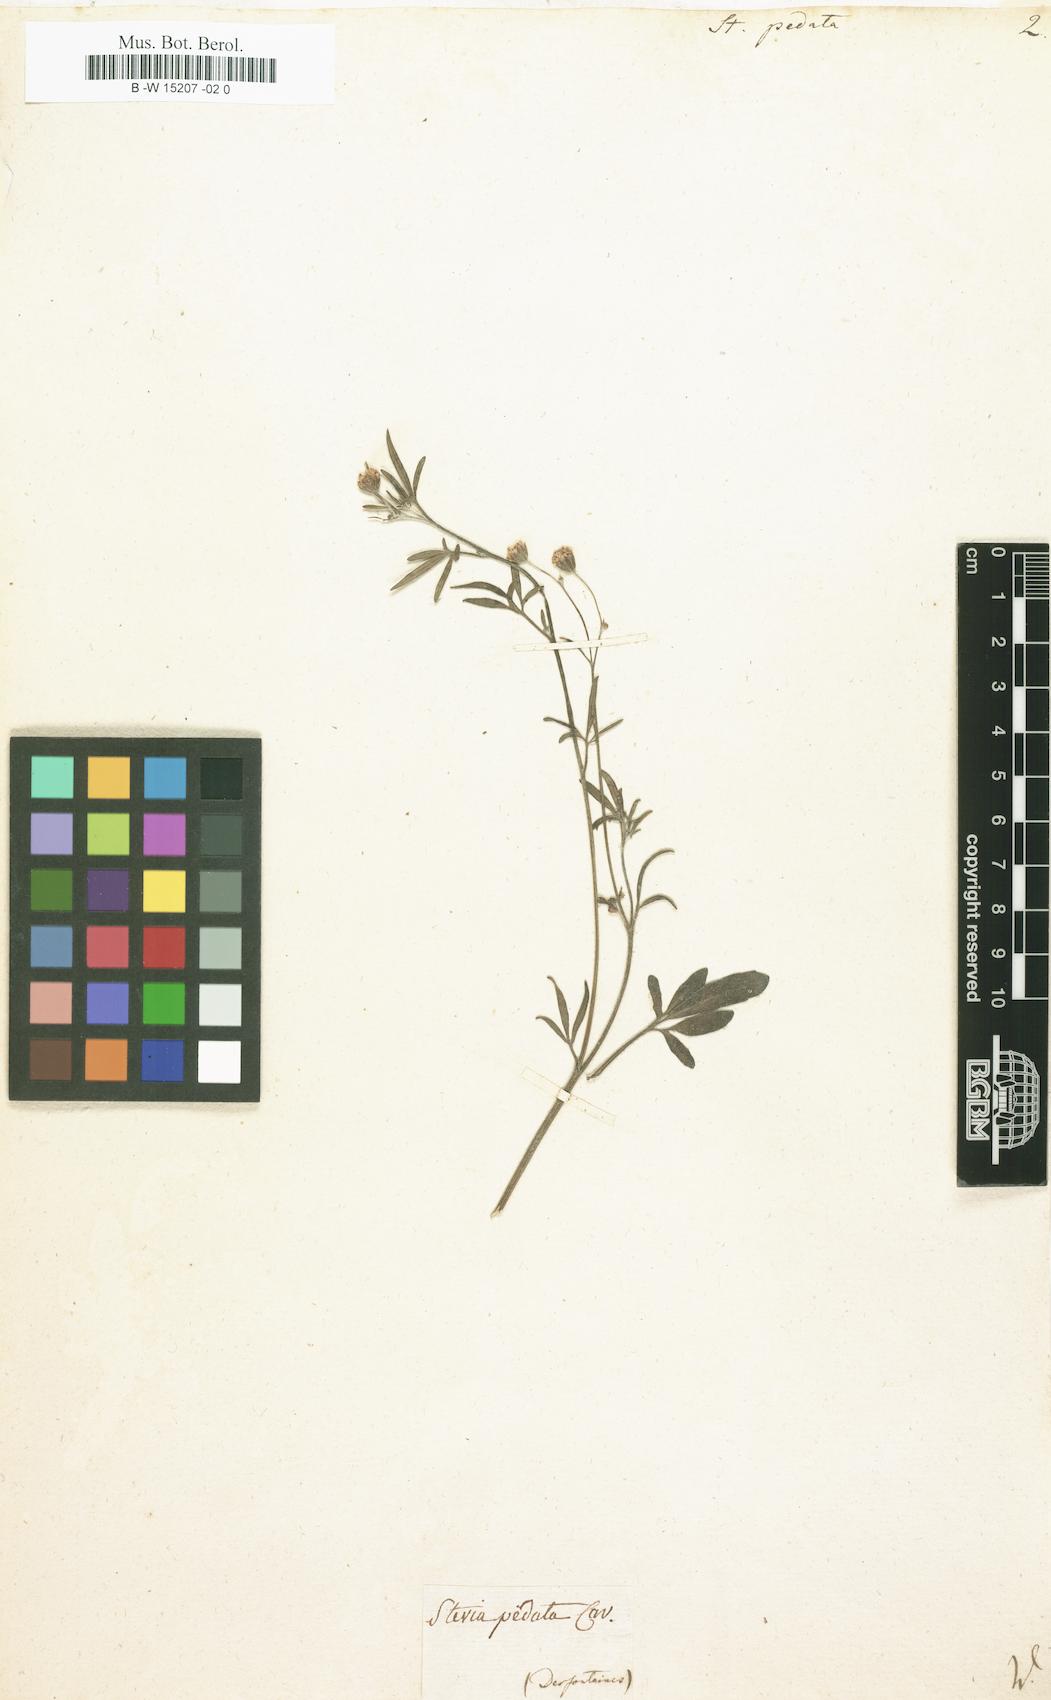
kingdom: Plantae
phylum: Tracheophyta
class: Magnoliopsida
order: Asterales
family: Asteraceae
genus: Florestina
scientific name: Florestina pedata
